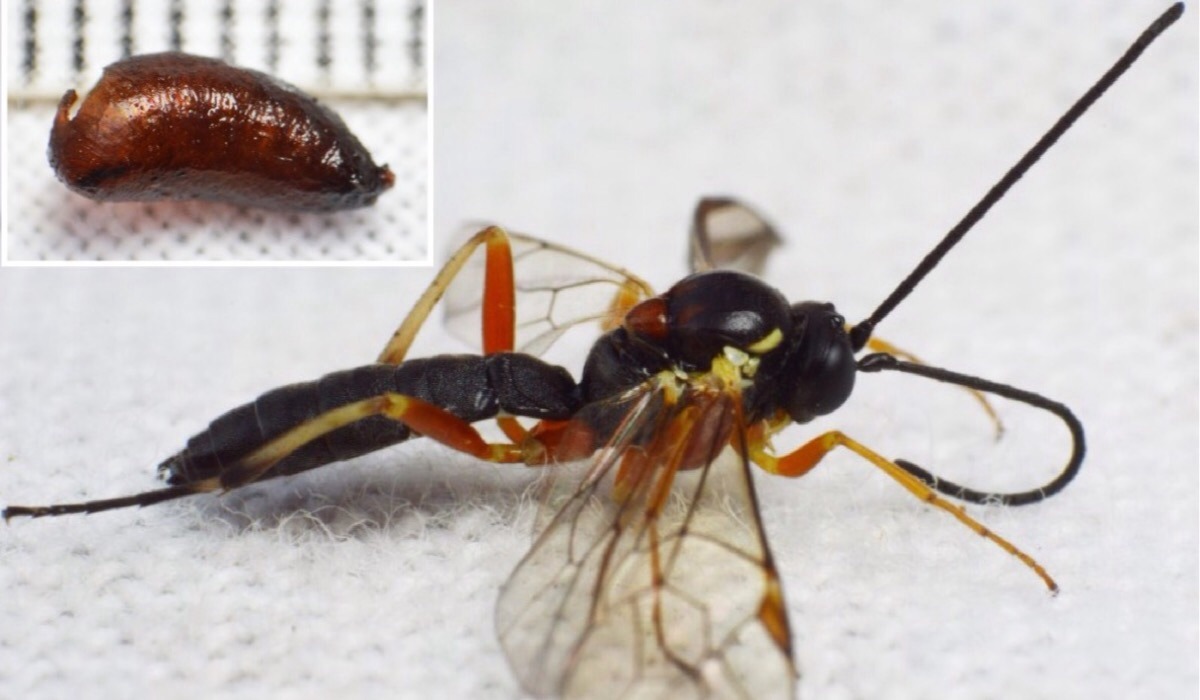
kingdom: Animalia
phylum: Arthropoda
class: Insecta
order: Hymenoptera
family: Ichneumonidae
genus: Diplazon
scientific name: Diplazon pectoratorius
